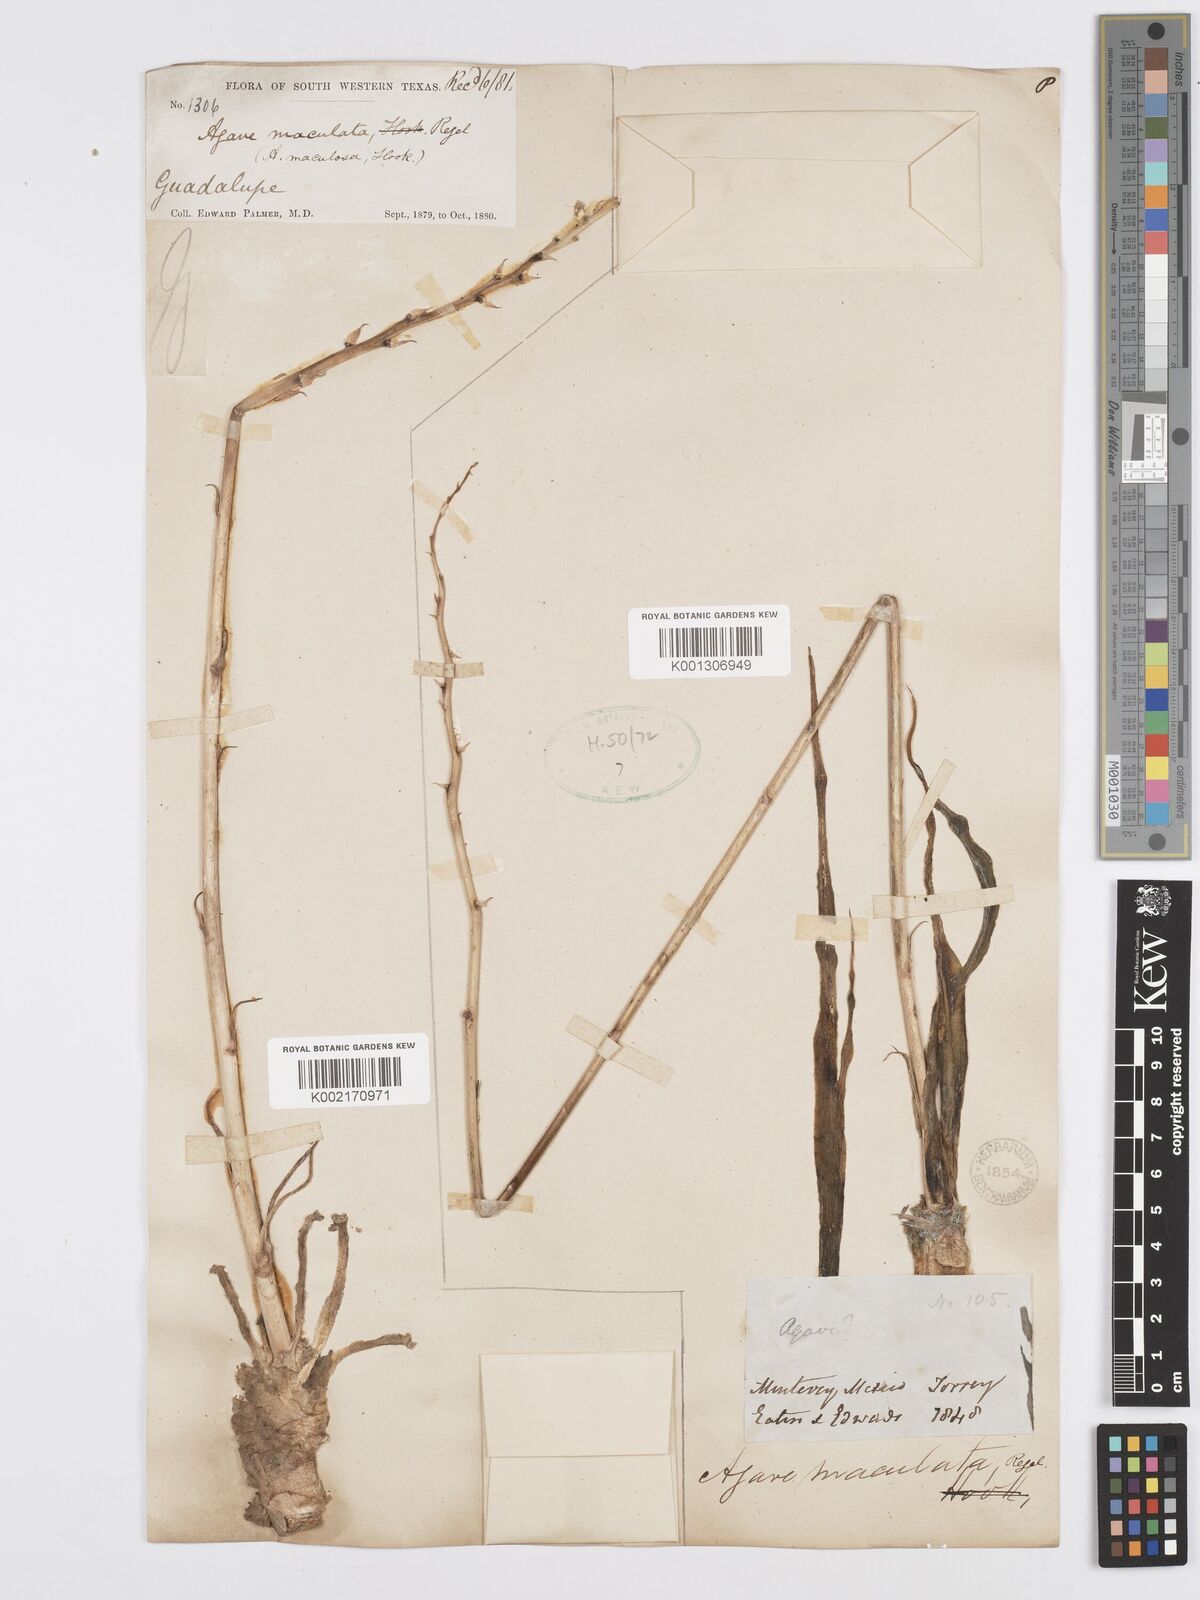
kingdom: Plantae
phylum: Tracheophyta
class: Liliopsida
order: Asparagales
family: Asparagaceae
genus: Agave
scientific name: Agave stictata
